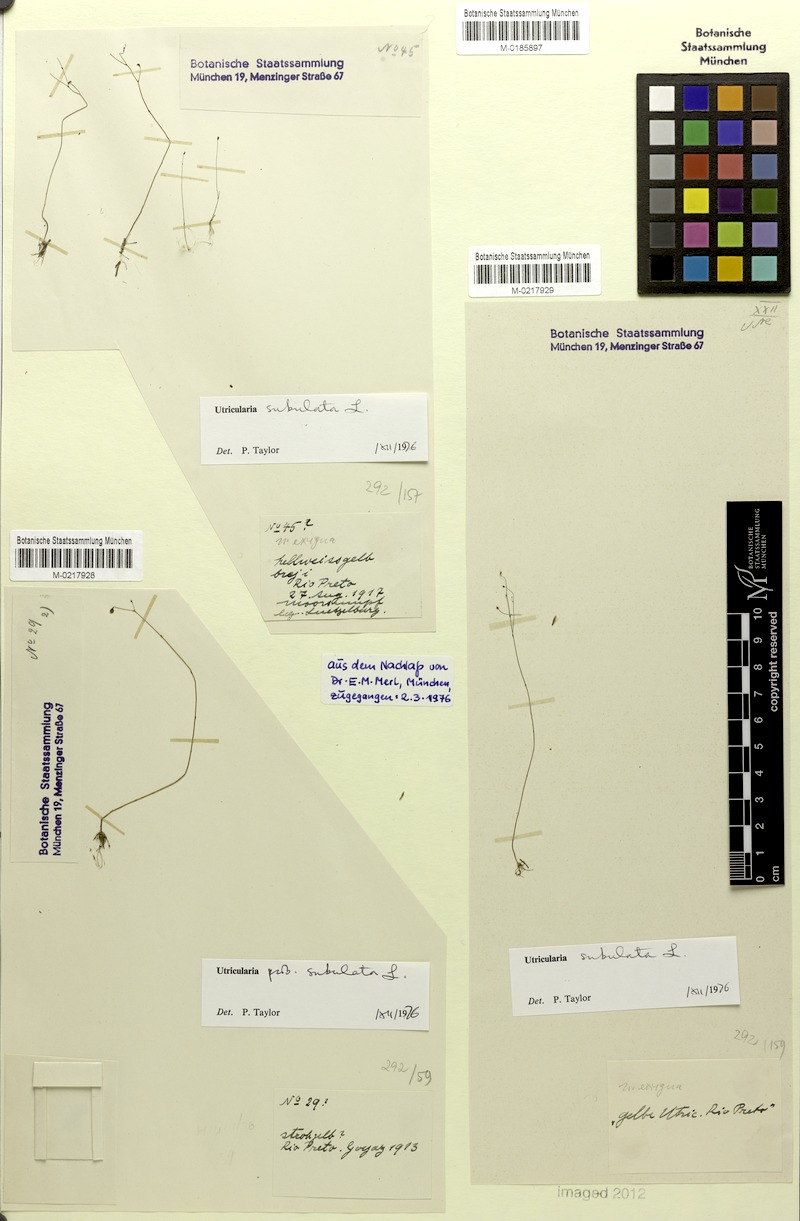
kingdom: Plantae
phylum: Tracheophyta
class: Magnoliopsida
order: Lamiales
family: Lentibulariaceae
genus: Utricularia
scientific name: Utricularia subulata
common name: Tiny bladderwort
